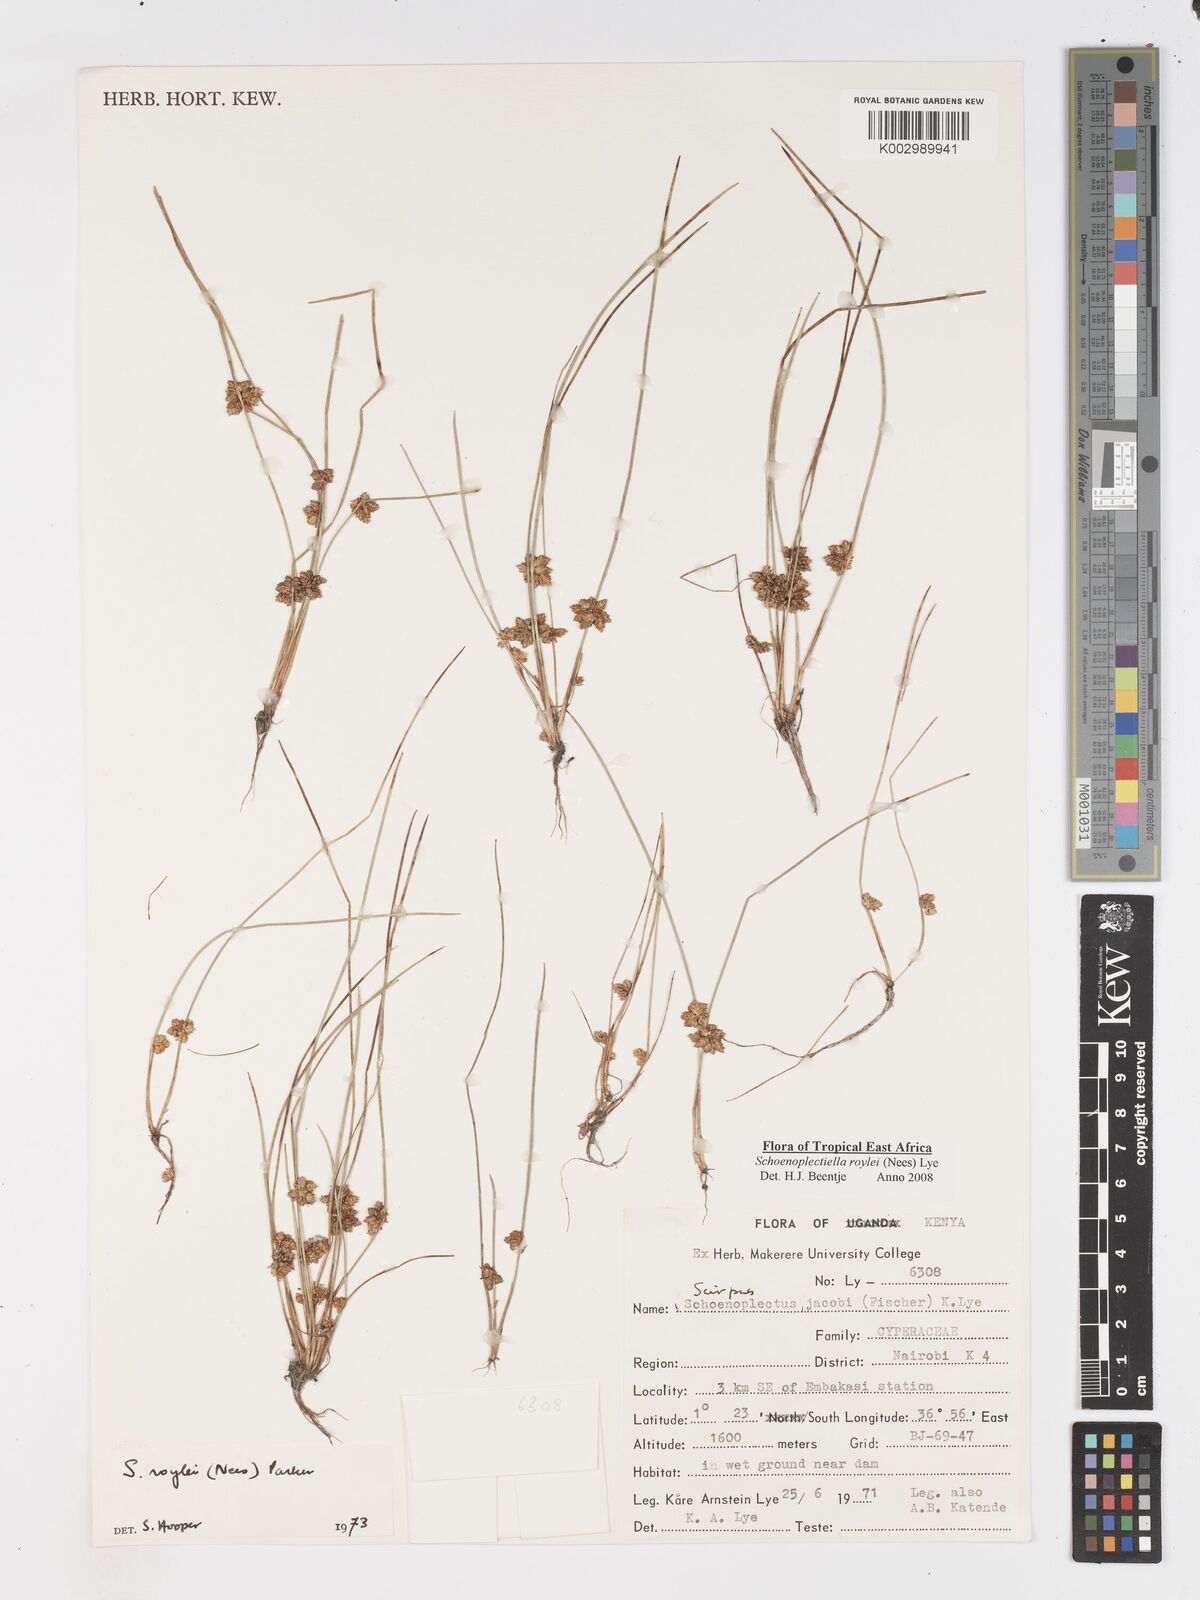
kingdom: Plantae
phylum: Tracheophyta
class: Liliopsida
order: Poales
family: Cyperaceae
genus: Schoenoplectiella
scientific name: Schoenoplectiella roylei
